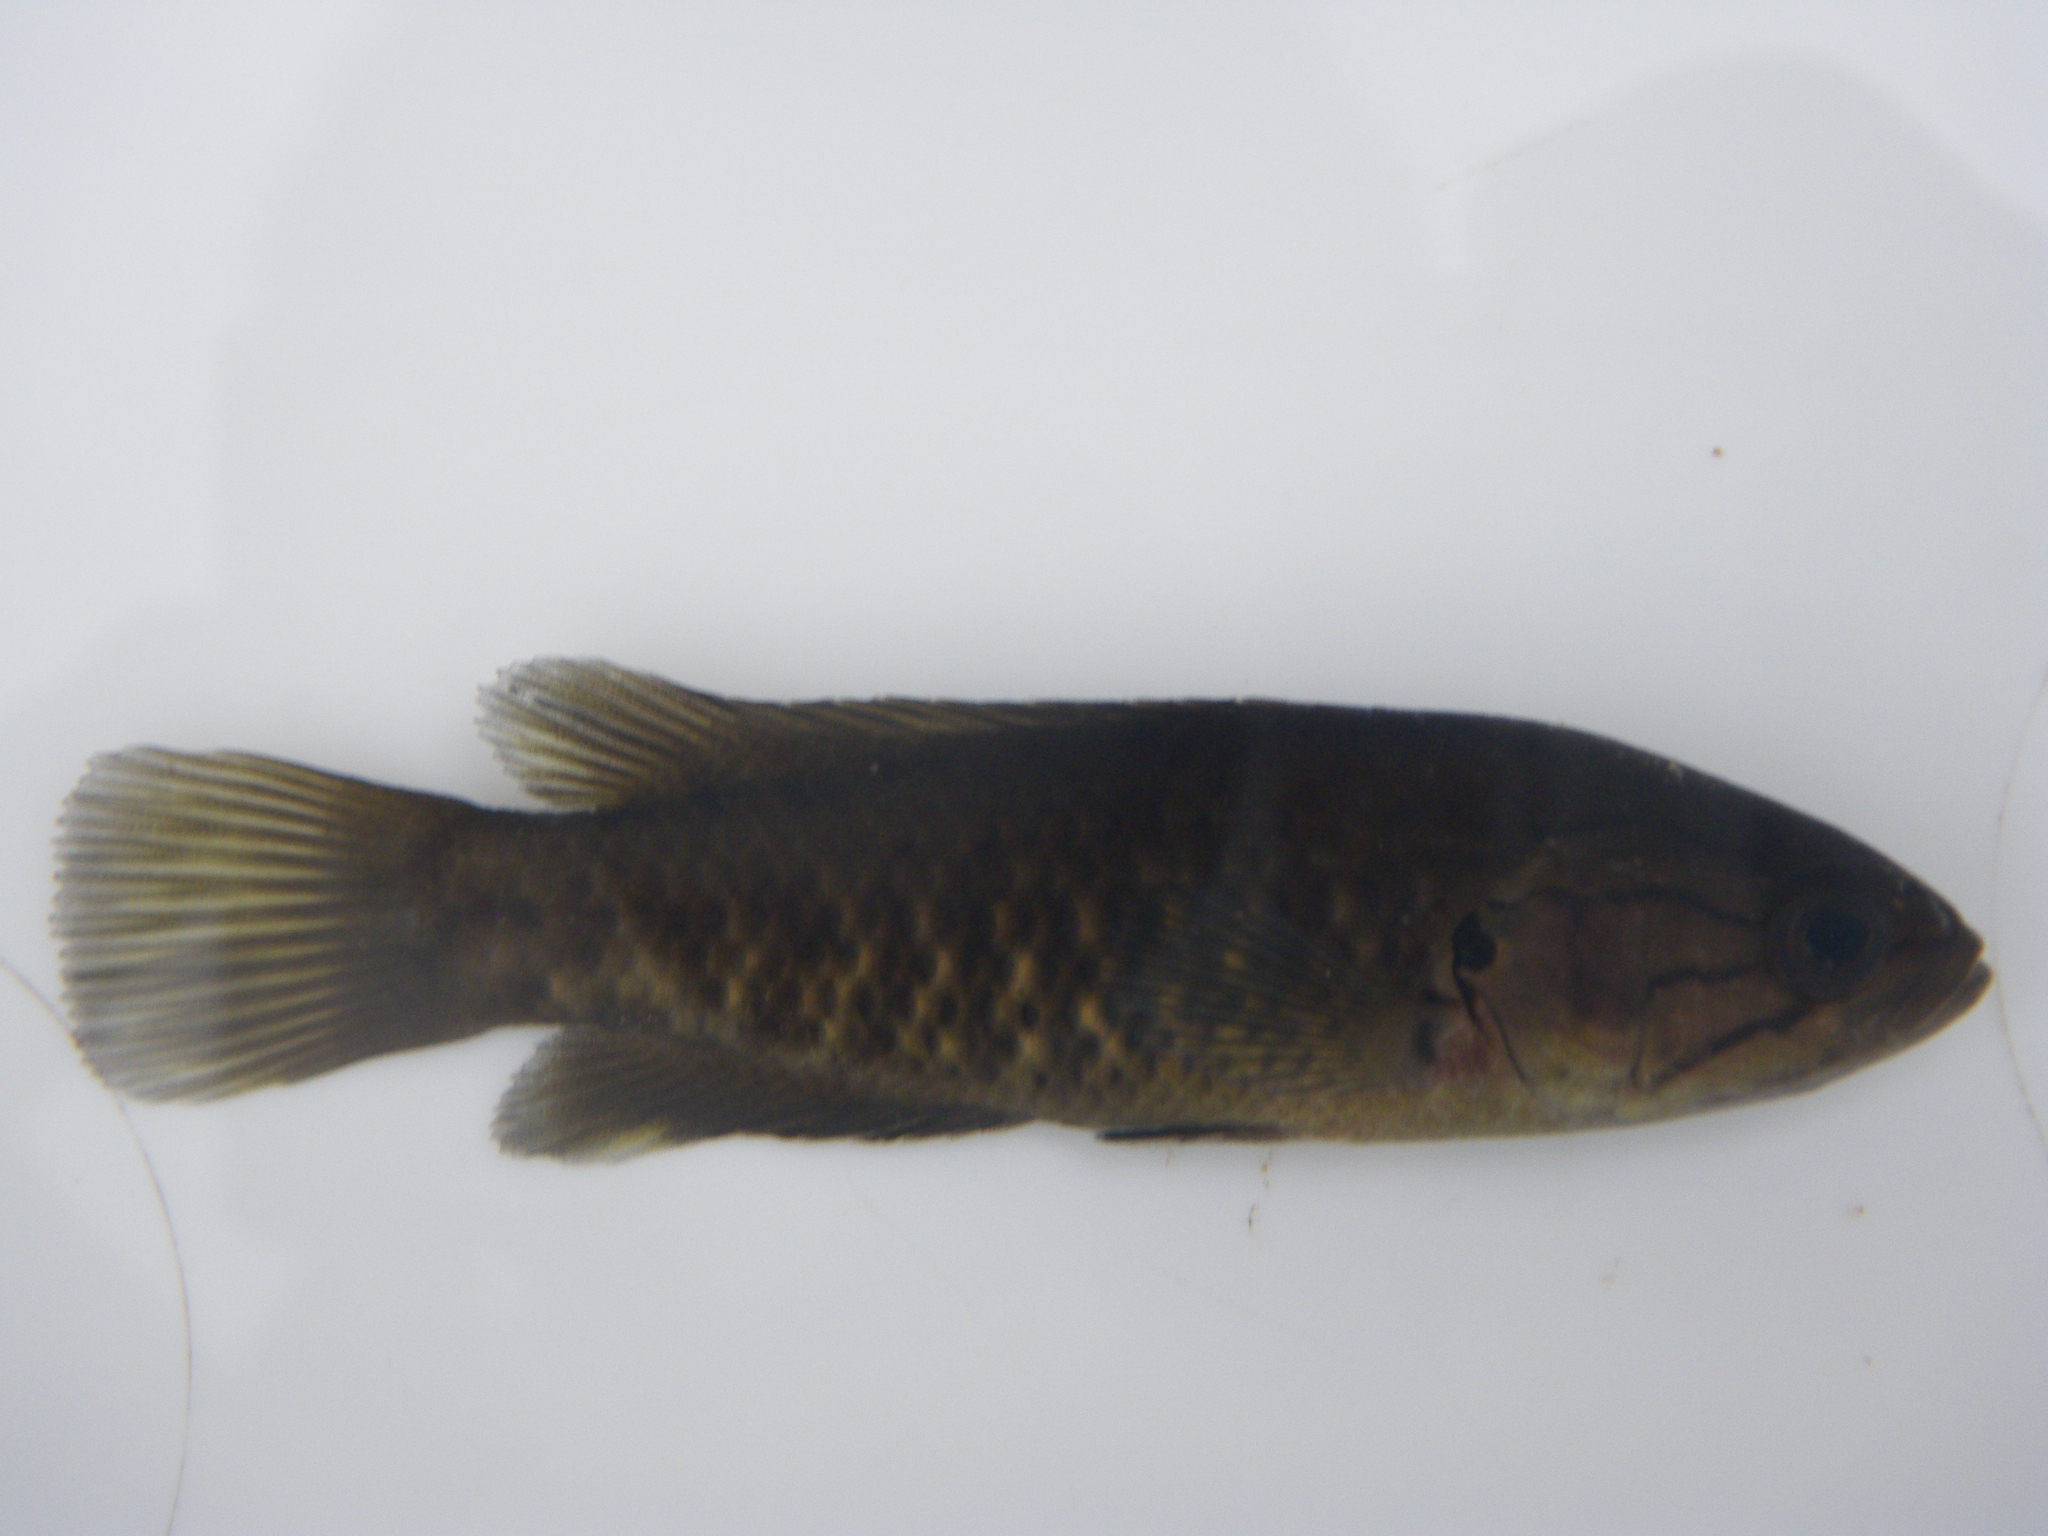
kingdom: Animalia
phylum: Chordata
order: Perciformes
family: Anabantidae
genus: Sandelia
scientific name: Sandelia capensis
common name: Cape kurper
